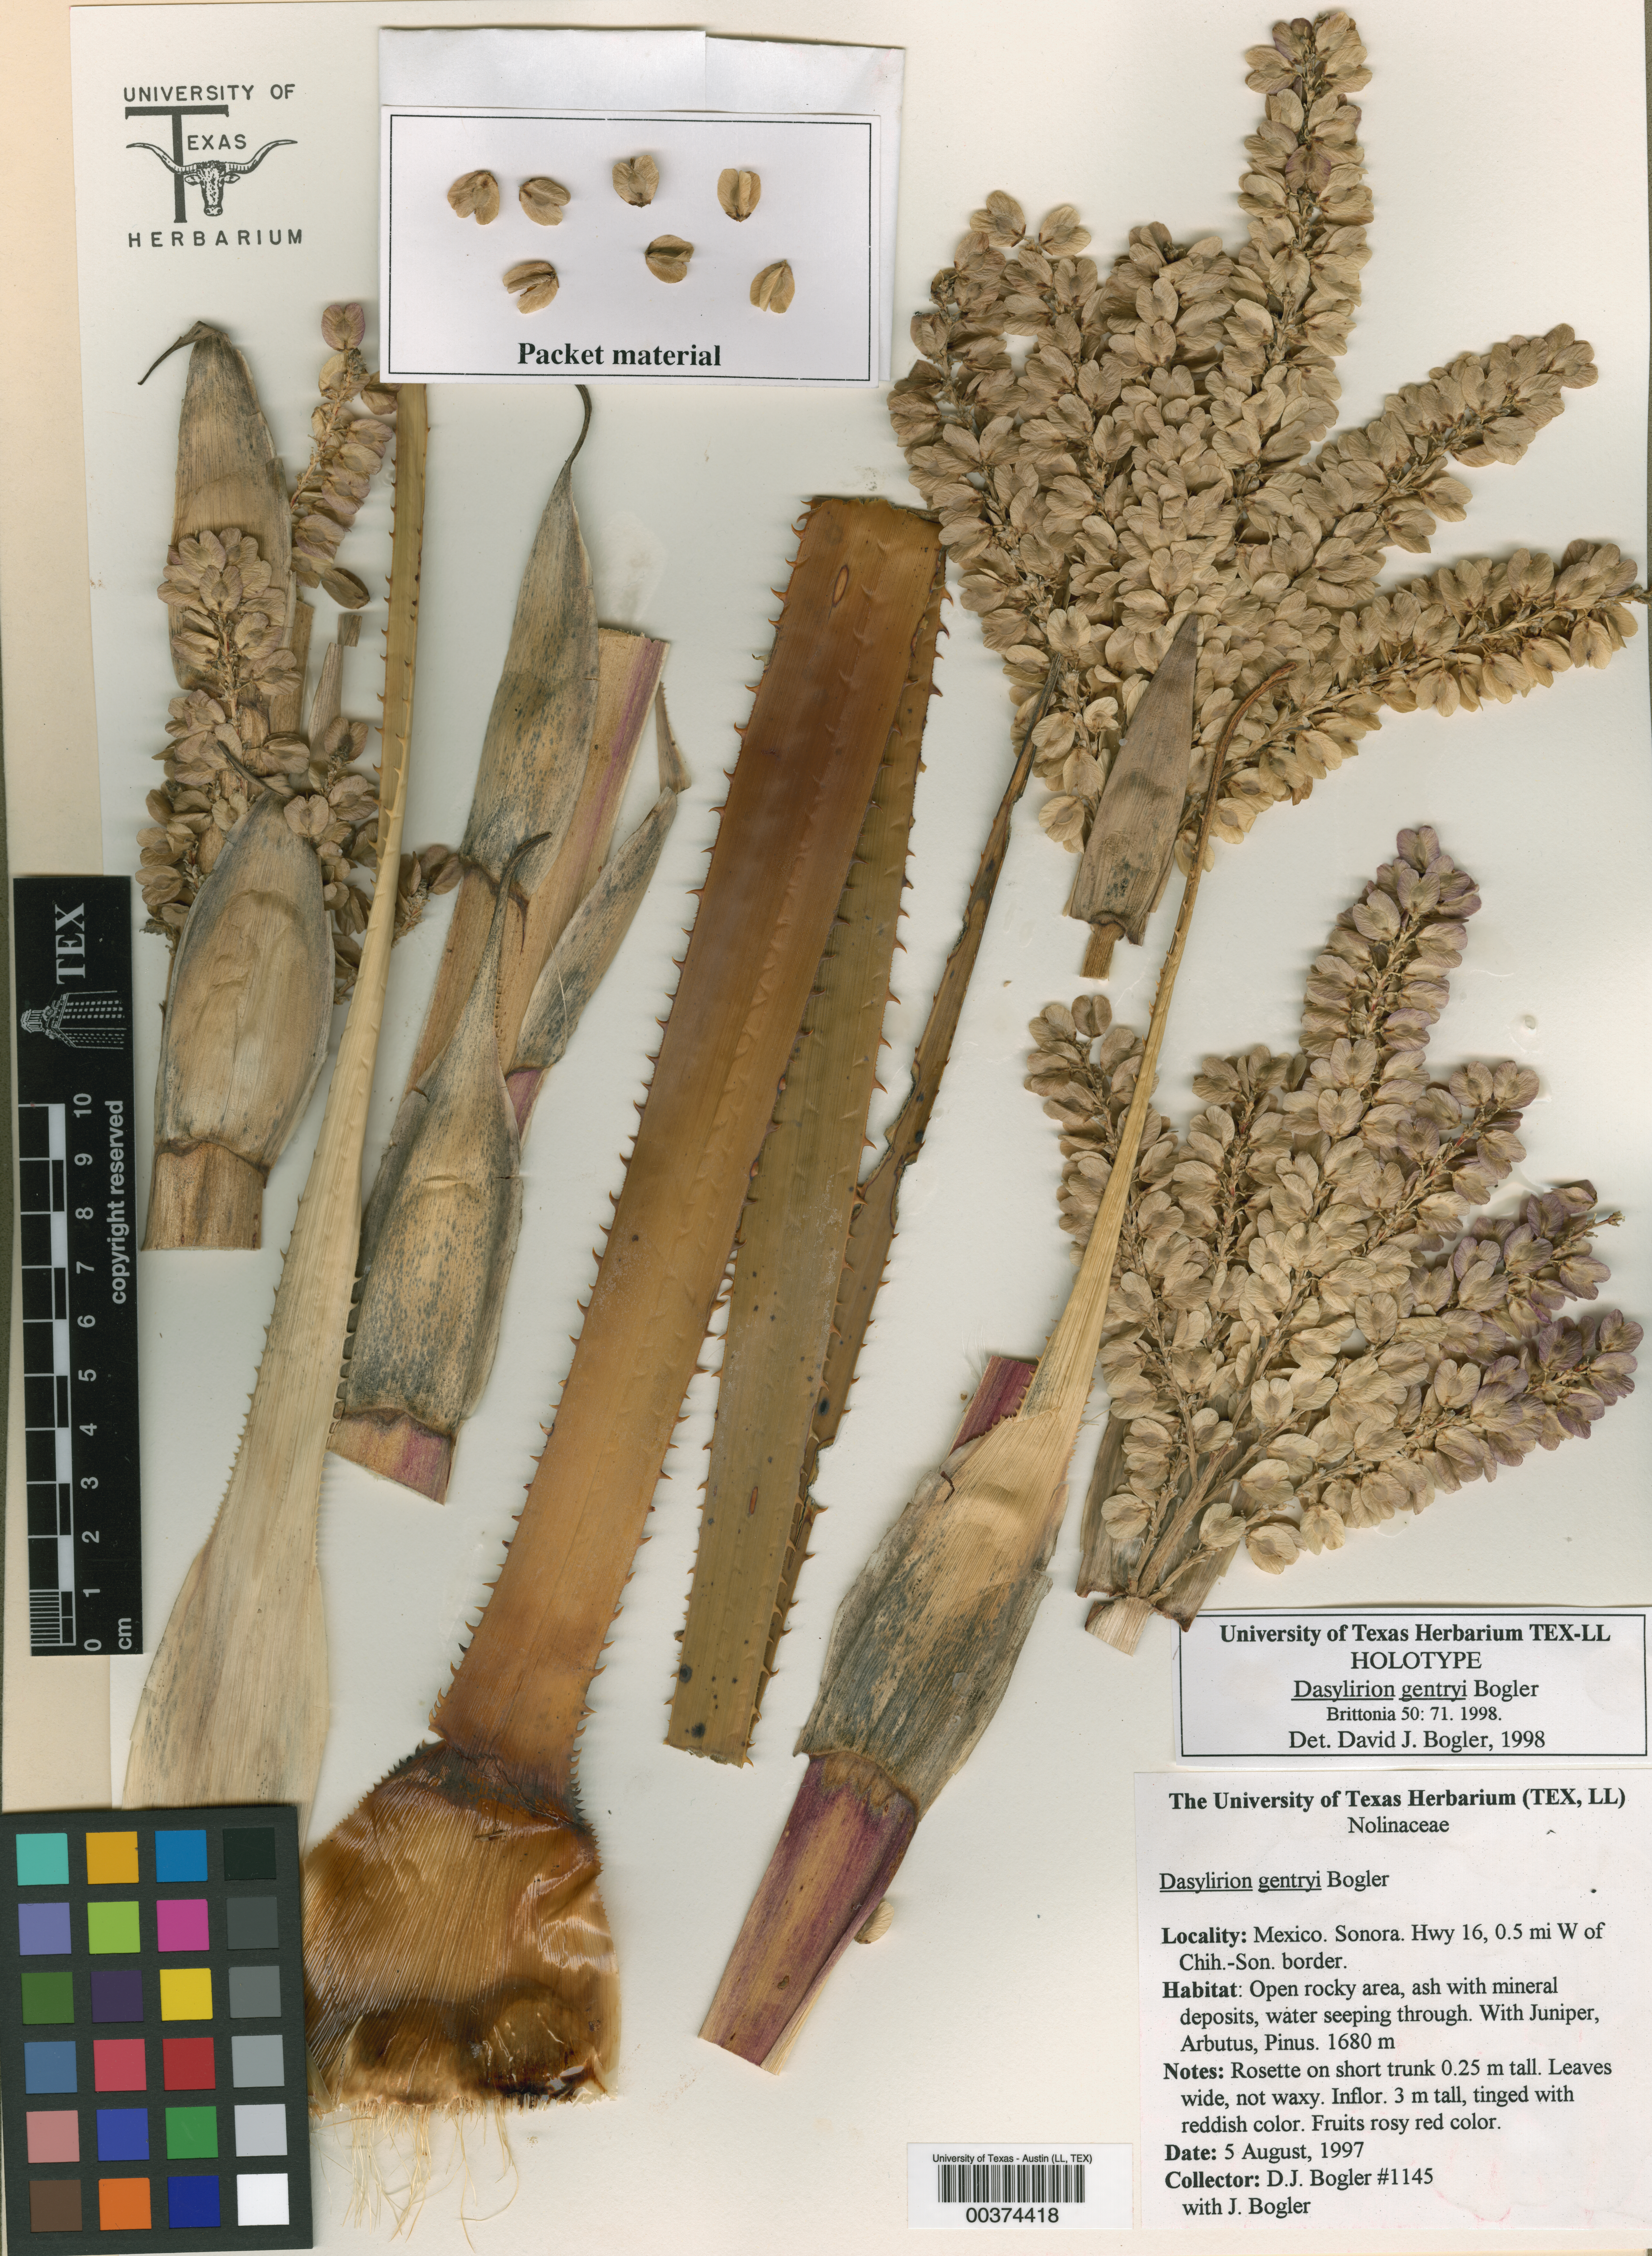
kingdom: Plantae
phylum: Tracheophyta
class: Magnoliopsida
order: Malpighiales
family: Hypericaceae
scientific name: Hypericaceae
